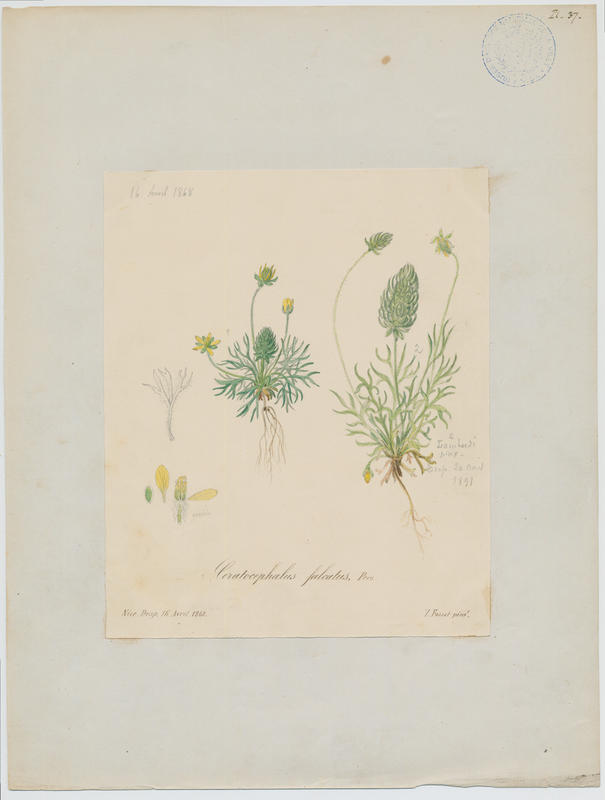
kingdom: Plantae
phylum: Tracheophyta
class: Magnoliopsida
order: Asterales
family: Asteraceae
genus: Achillea
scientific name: Achillea falcata
